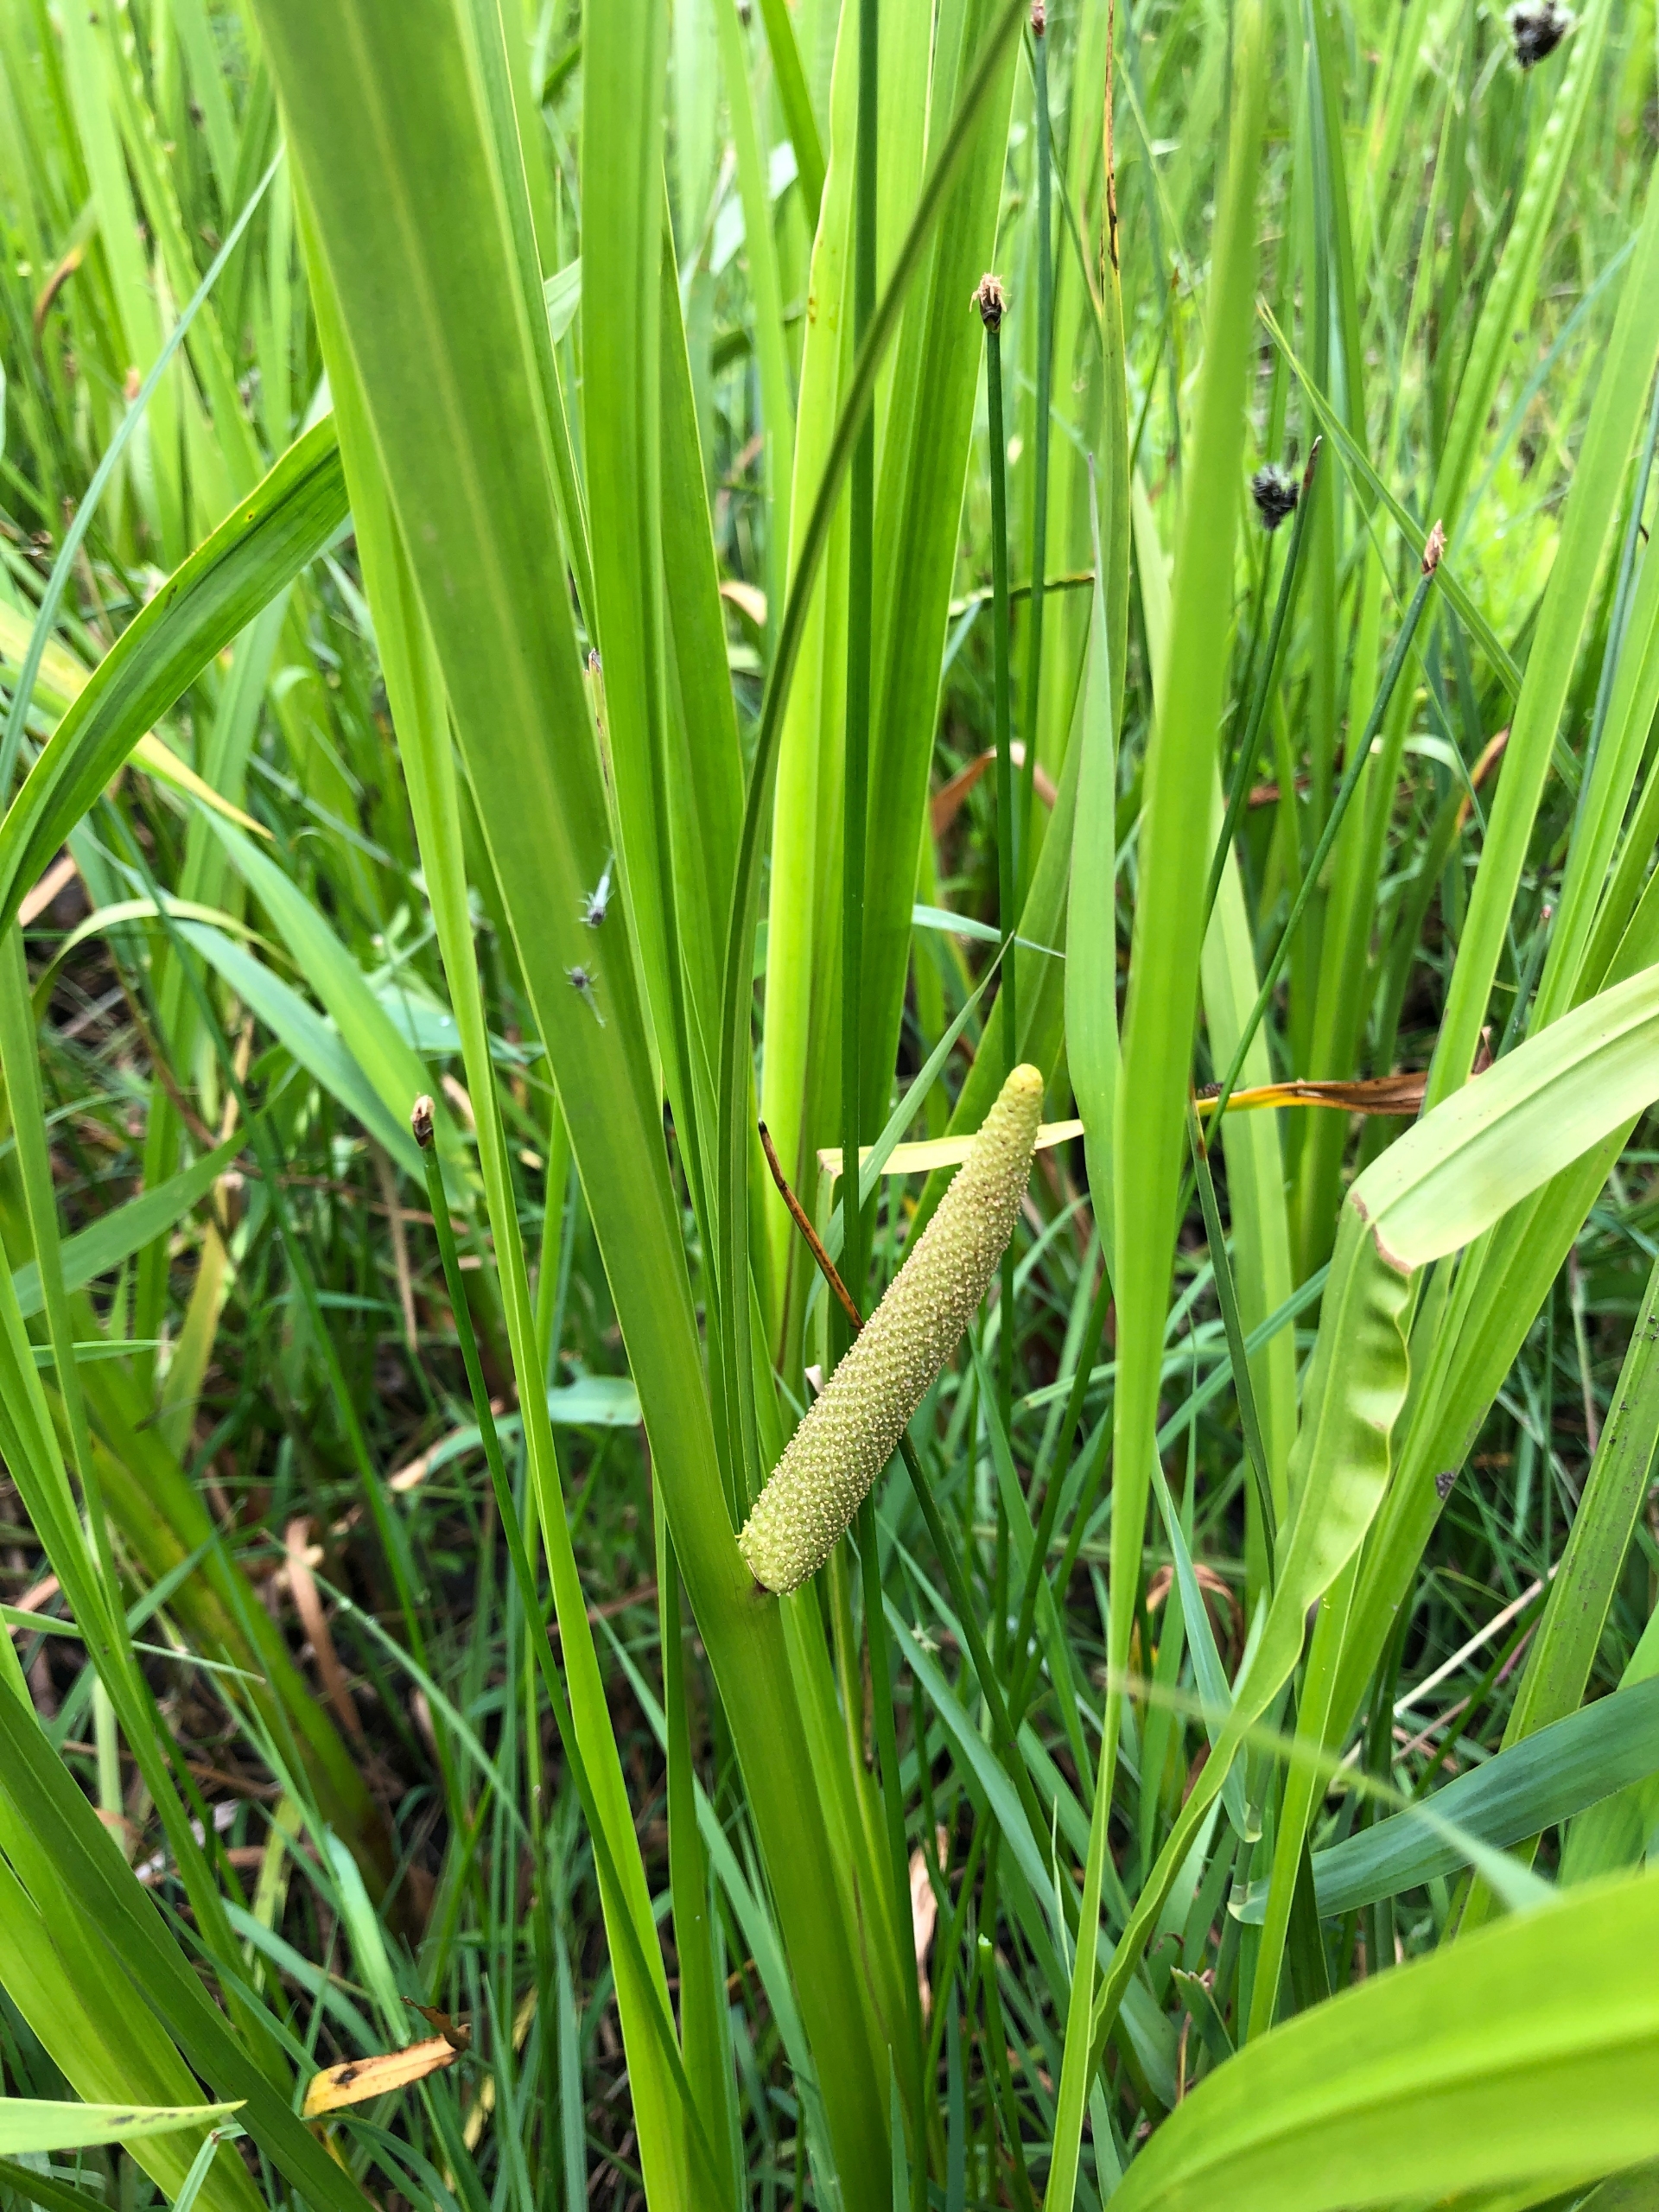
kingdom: Plantae
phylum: Tracheophyta
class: Liliopsida
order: Acorales
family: Acoraceae
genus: Acorus
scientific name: Acorus calamus
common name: Kalmus
